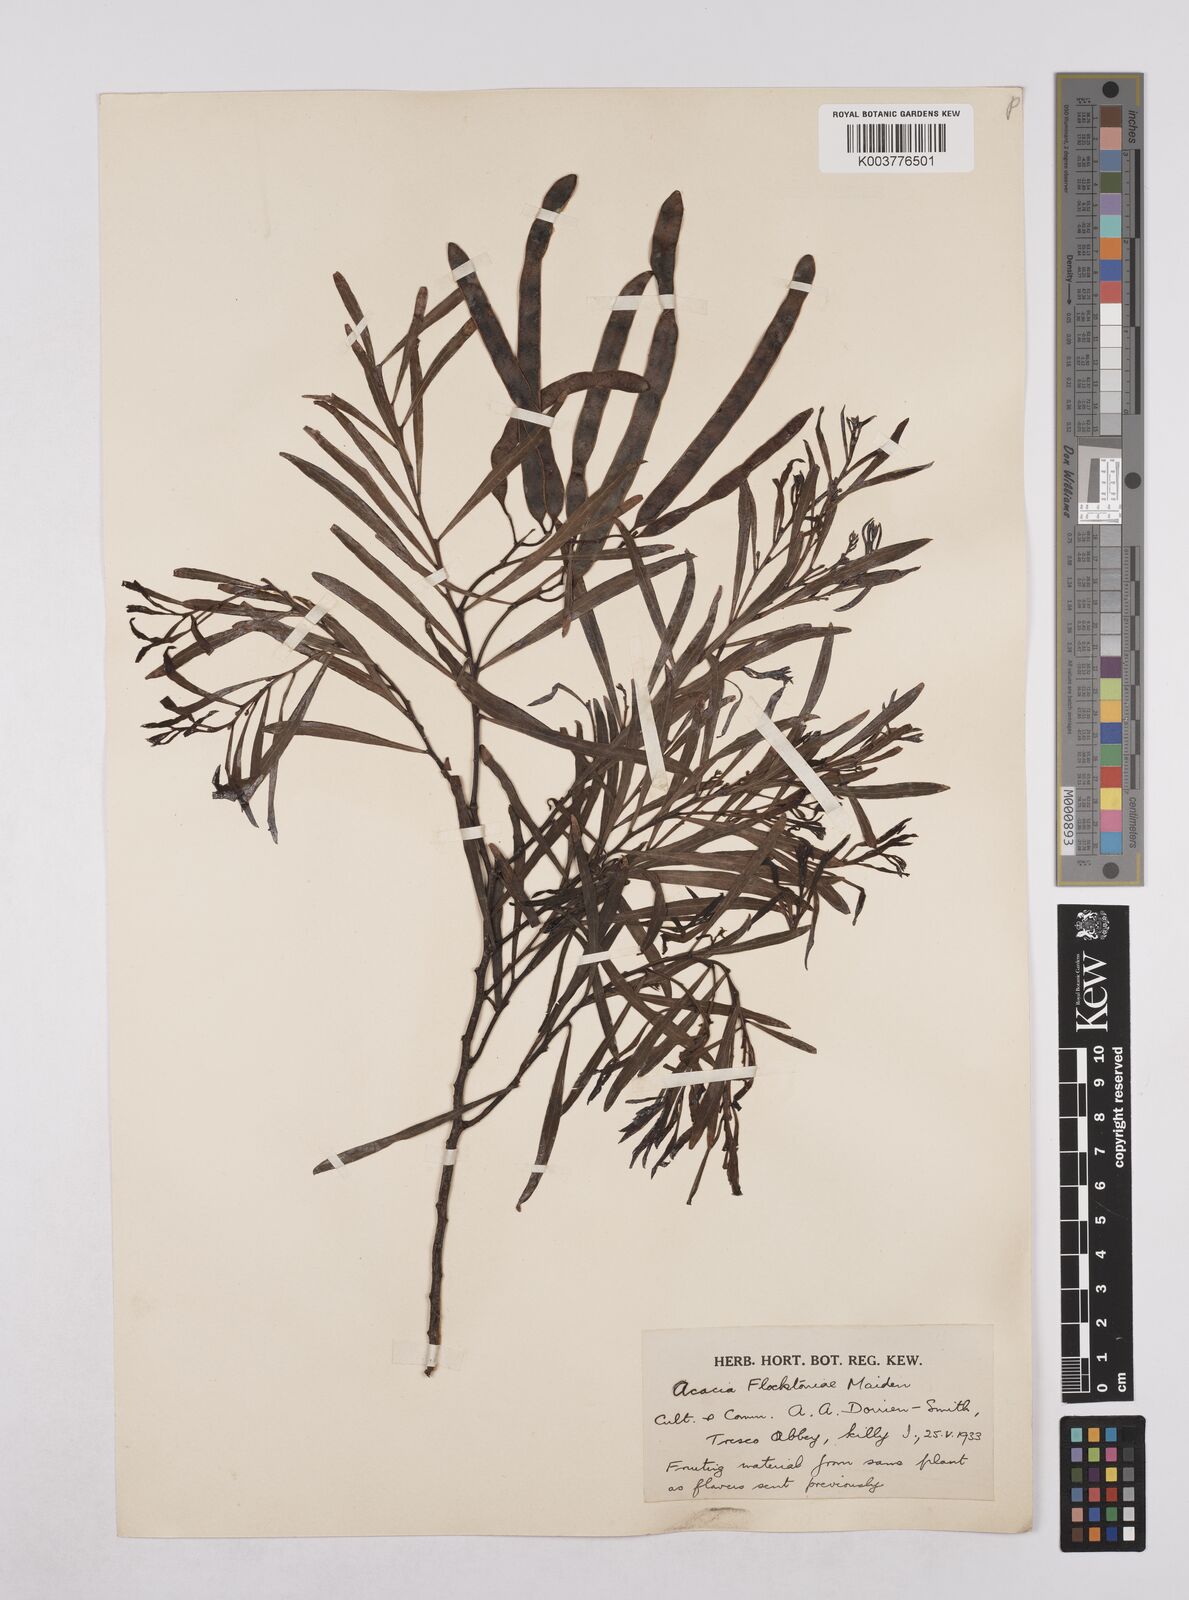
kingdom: Plantae
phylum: Tracheophyta
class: Magnoliopsida
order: Fabales
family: Fabaceae
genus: Acacia
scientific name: Acacia flocktoniae
